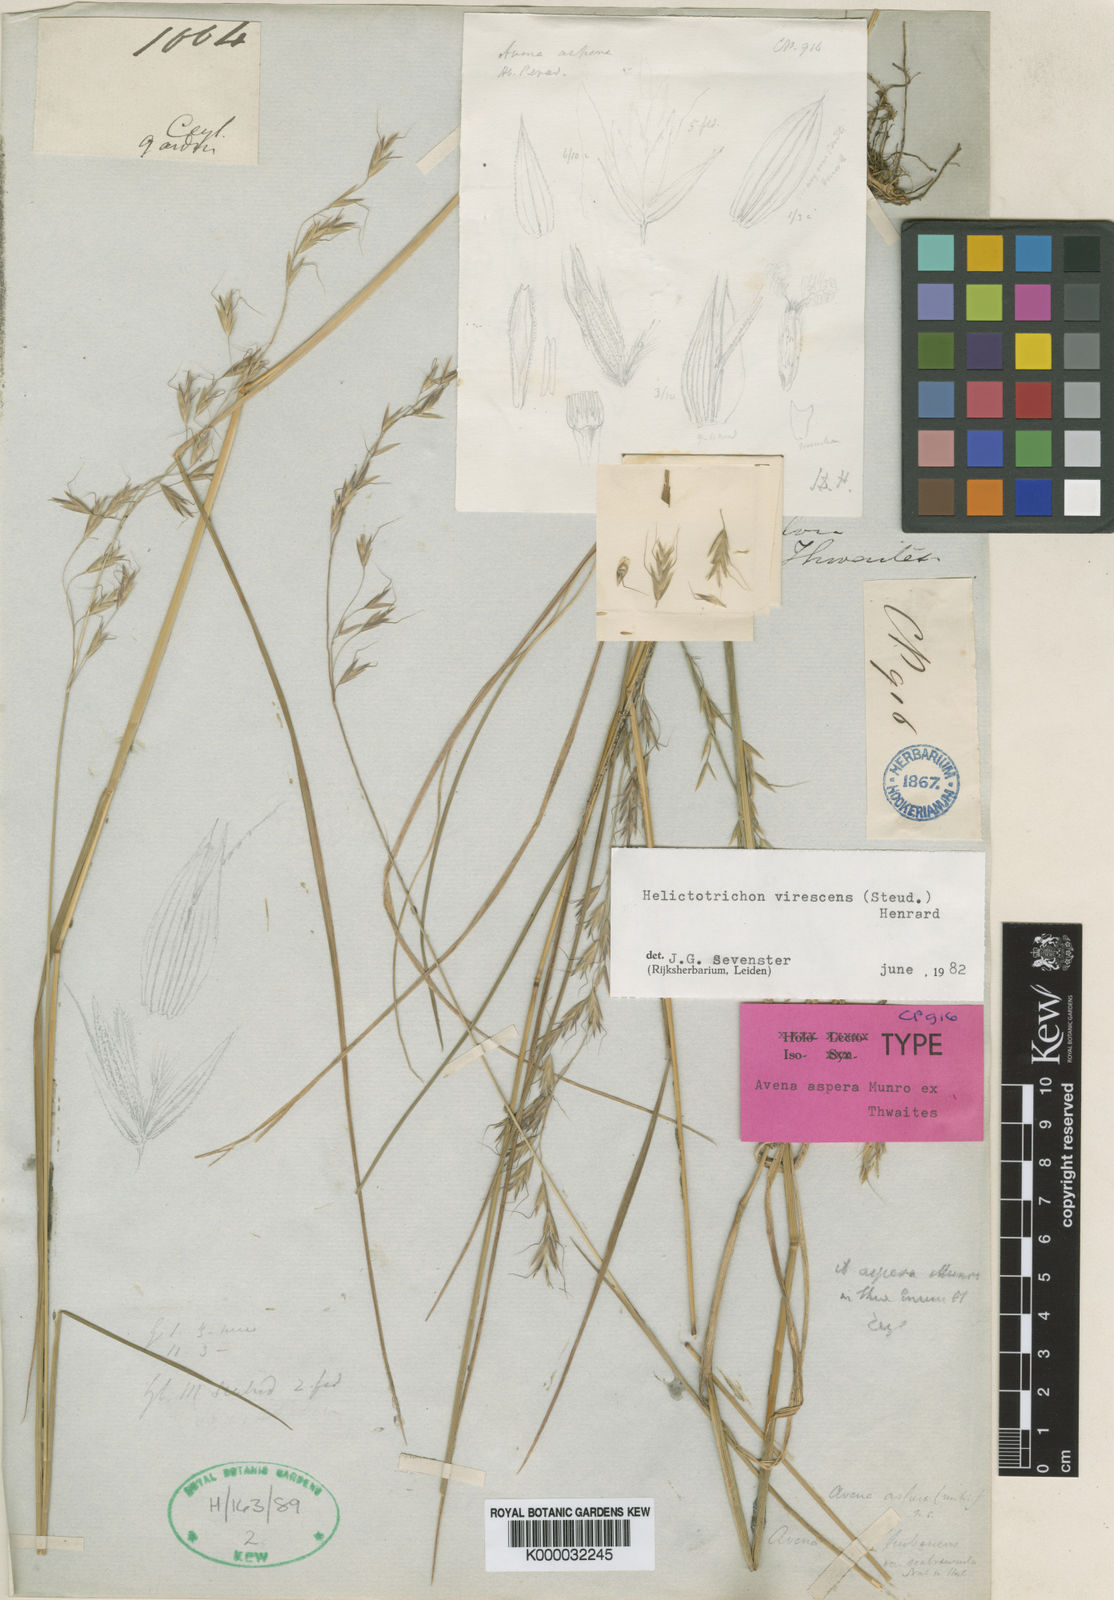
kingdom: Plantae
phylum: Tracheophyta
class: Liliopsida
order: Poales
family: Poaceae
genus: Trisetopsis
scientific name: Trisetopsis virescens
